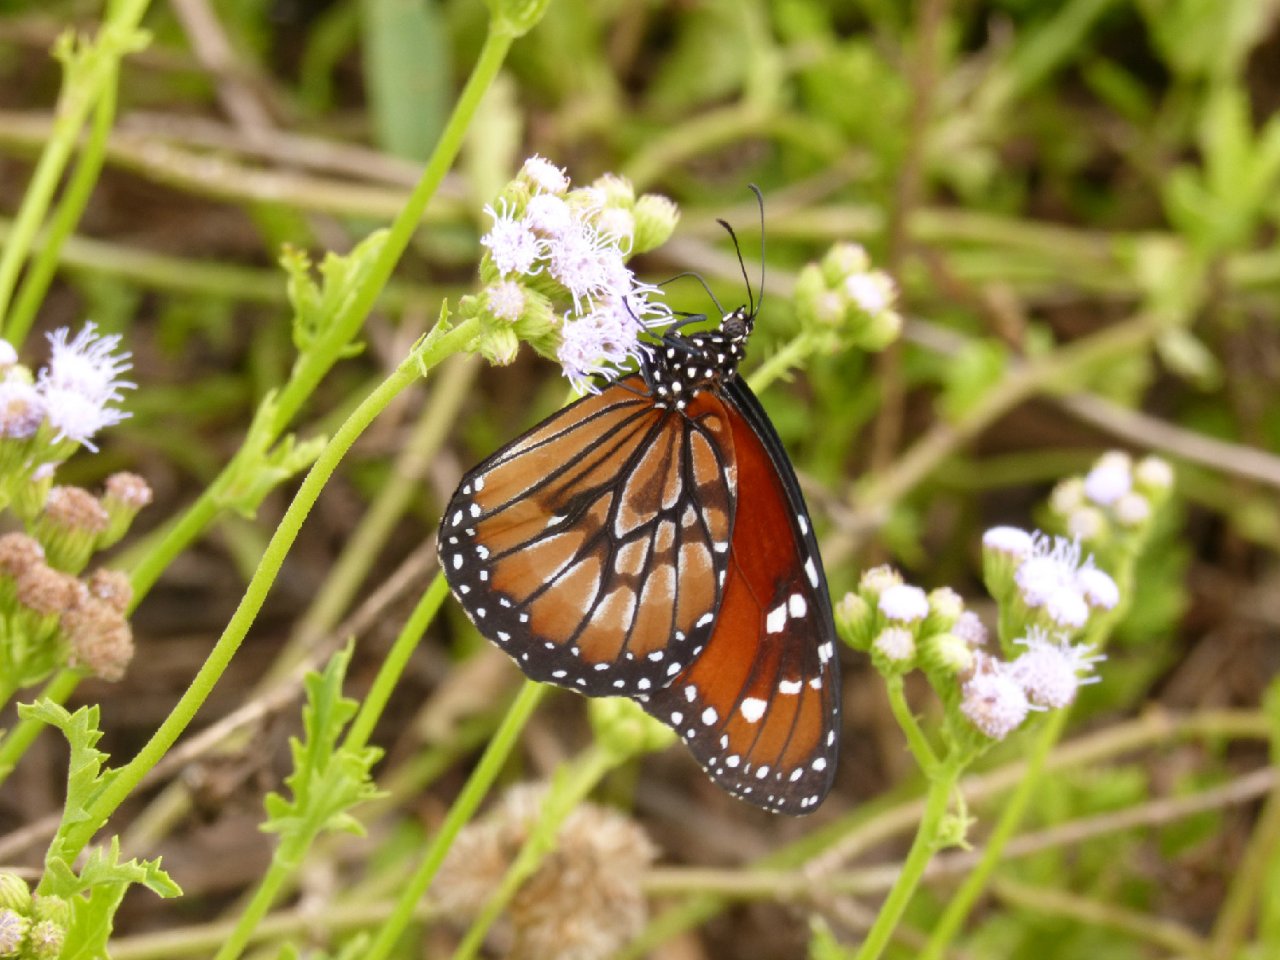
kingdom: Animalia
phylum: Arthropoda
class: Insecta
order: Lepidoptera
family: Nymphalidae
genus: Danaus
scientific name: Danaus eresimus
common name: Soldier
